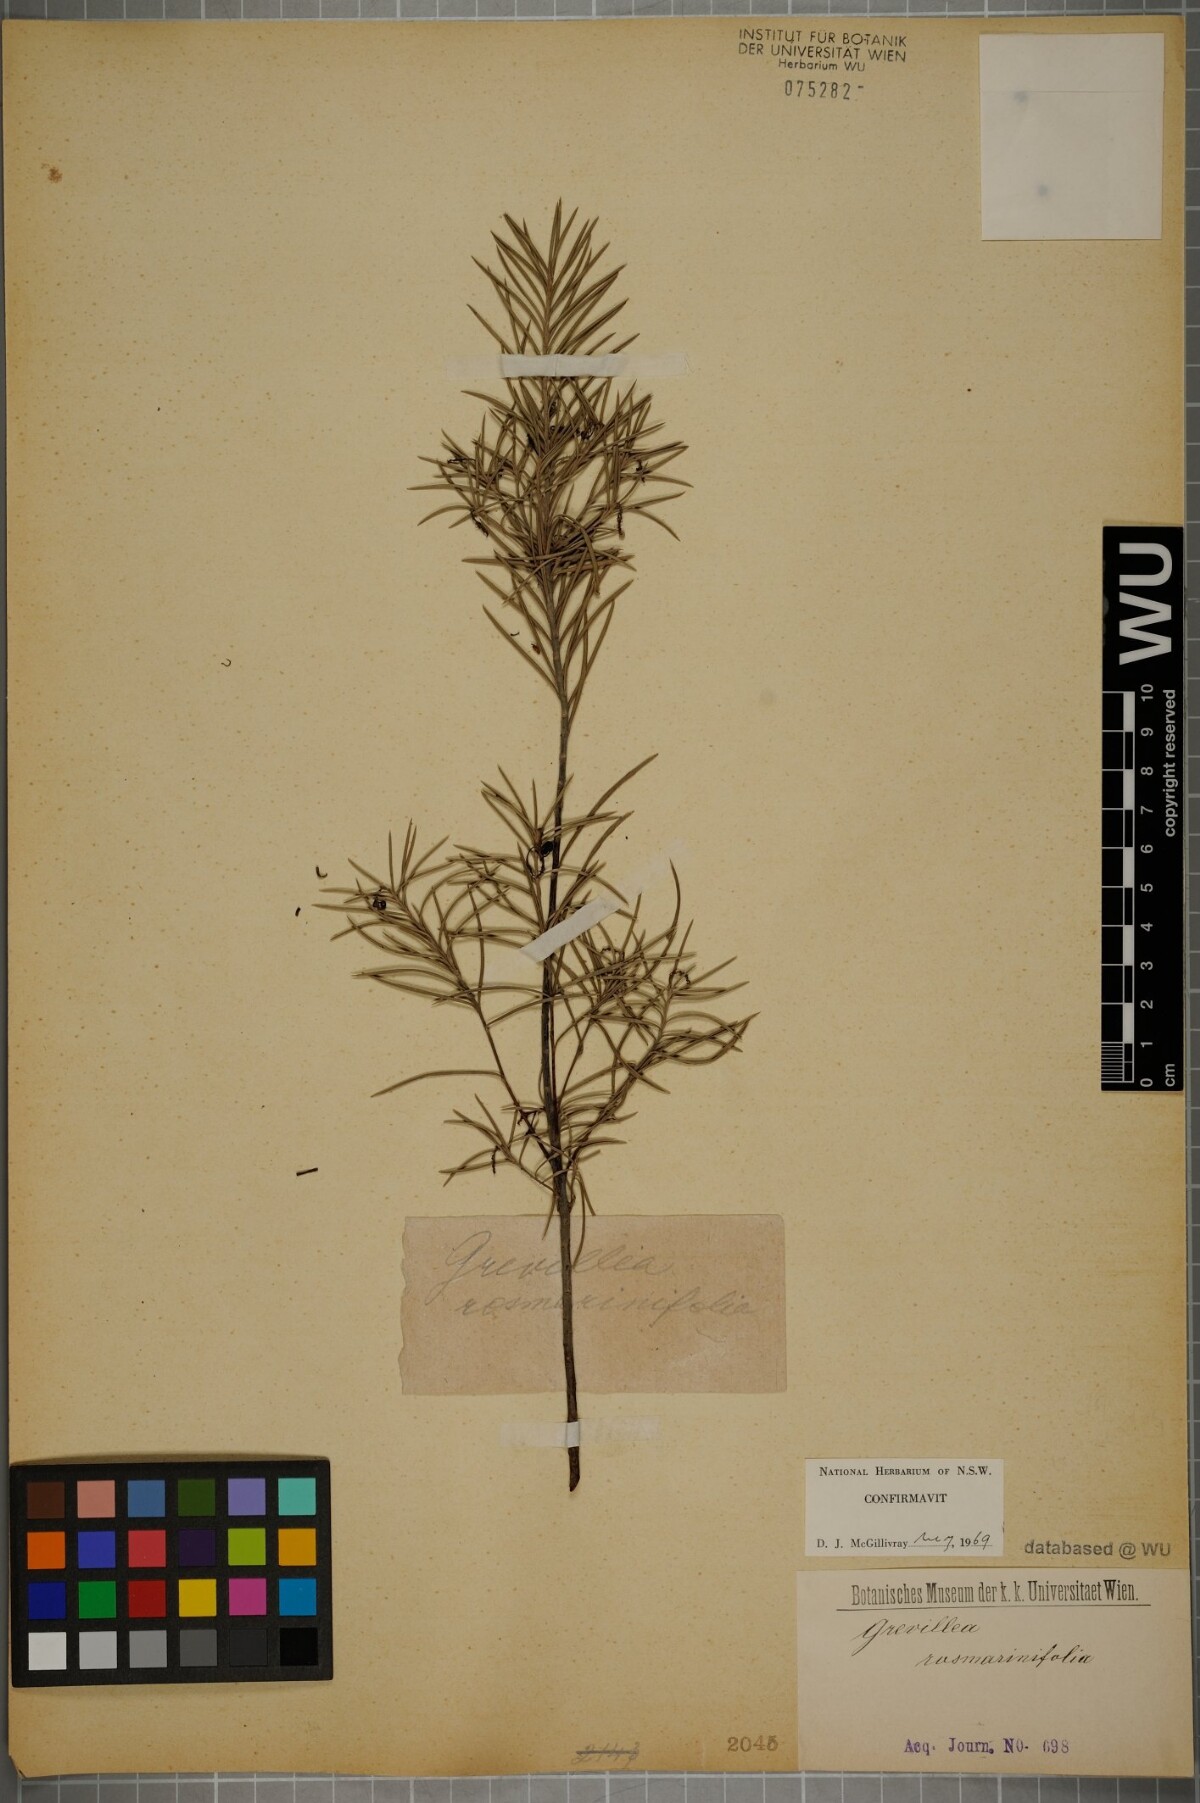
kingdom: Plantae
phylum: Tracheophyta
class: Magnoliopsida
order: Proteales
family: Proteaceae
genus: Grevillea
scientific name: Grevillea rosmarinifolia
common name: Rosemary grevillea
